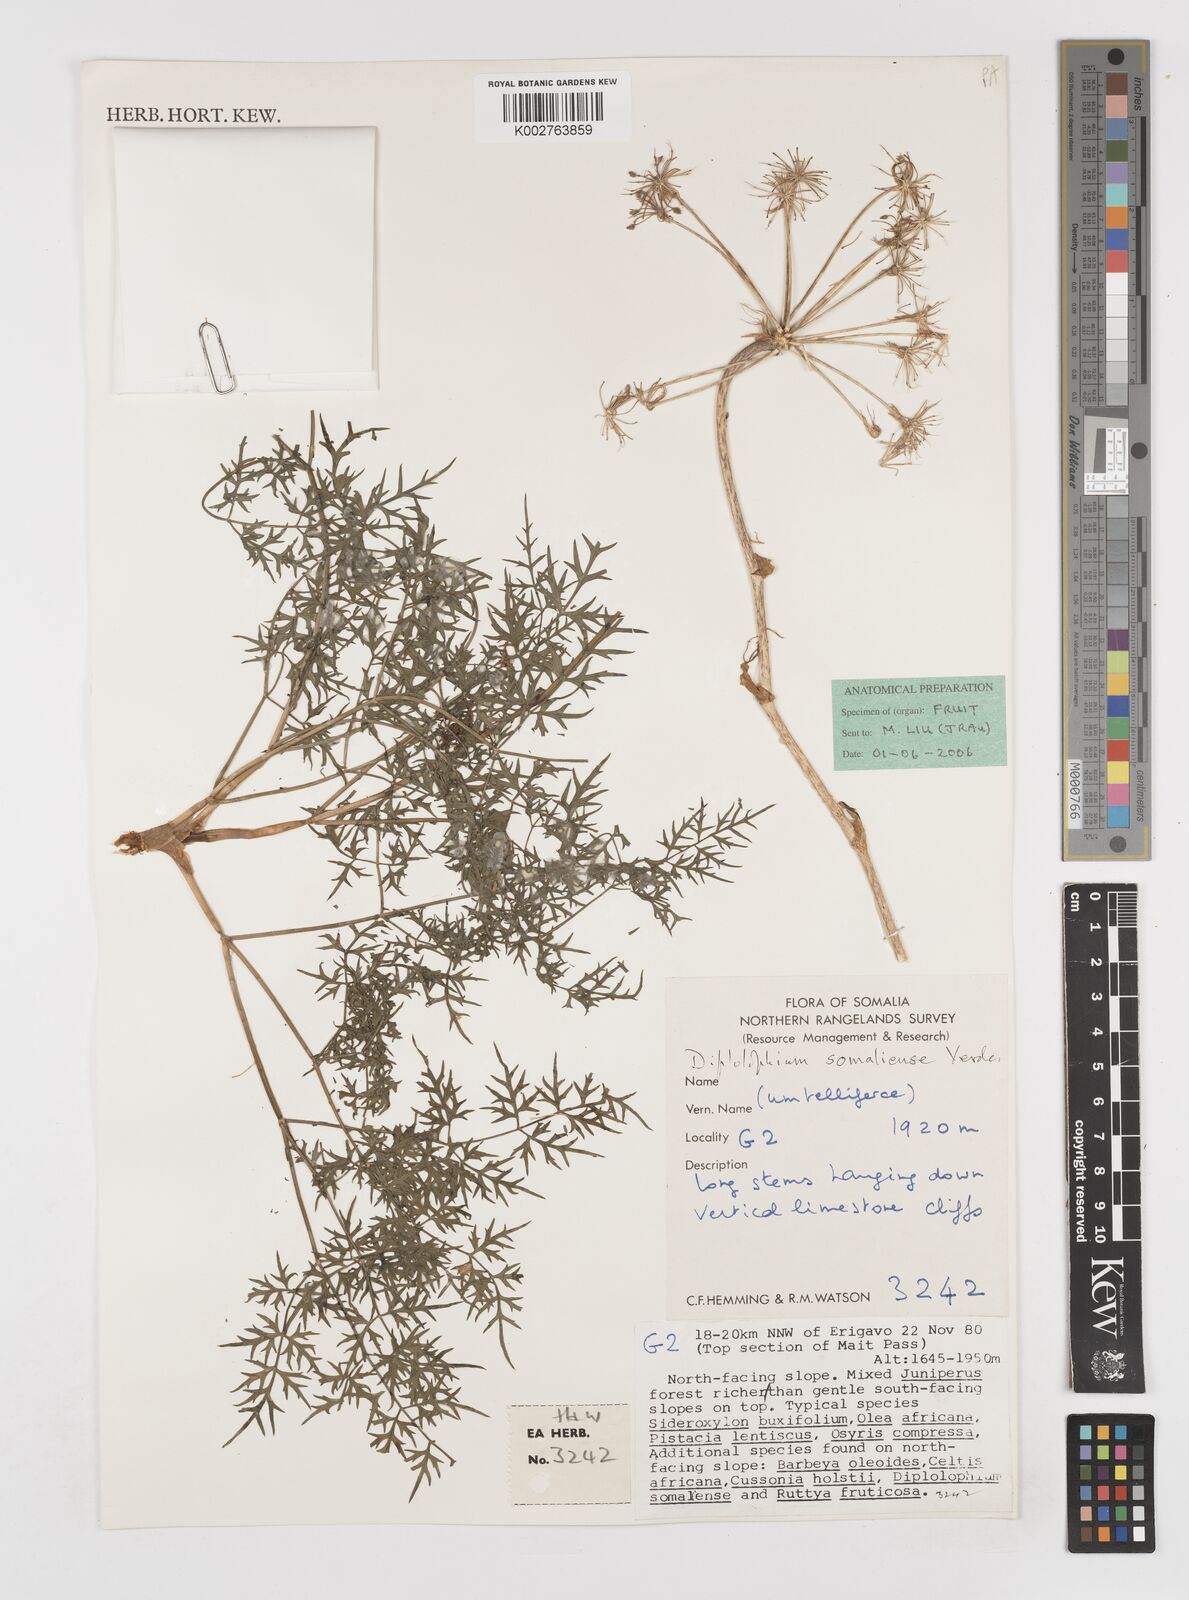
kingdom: Plantae
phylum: Tracheophyta
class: Magnoliopsida
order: Apiales
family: Apiaceae
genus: Diplolophium
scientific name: Diplolophium somaliense
